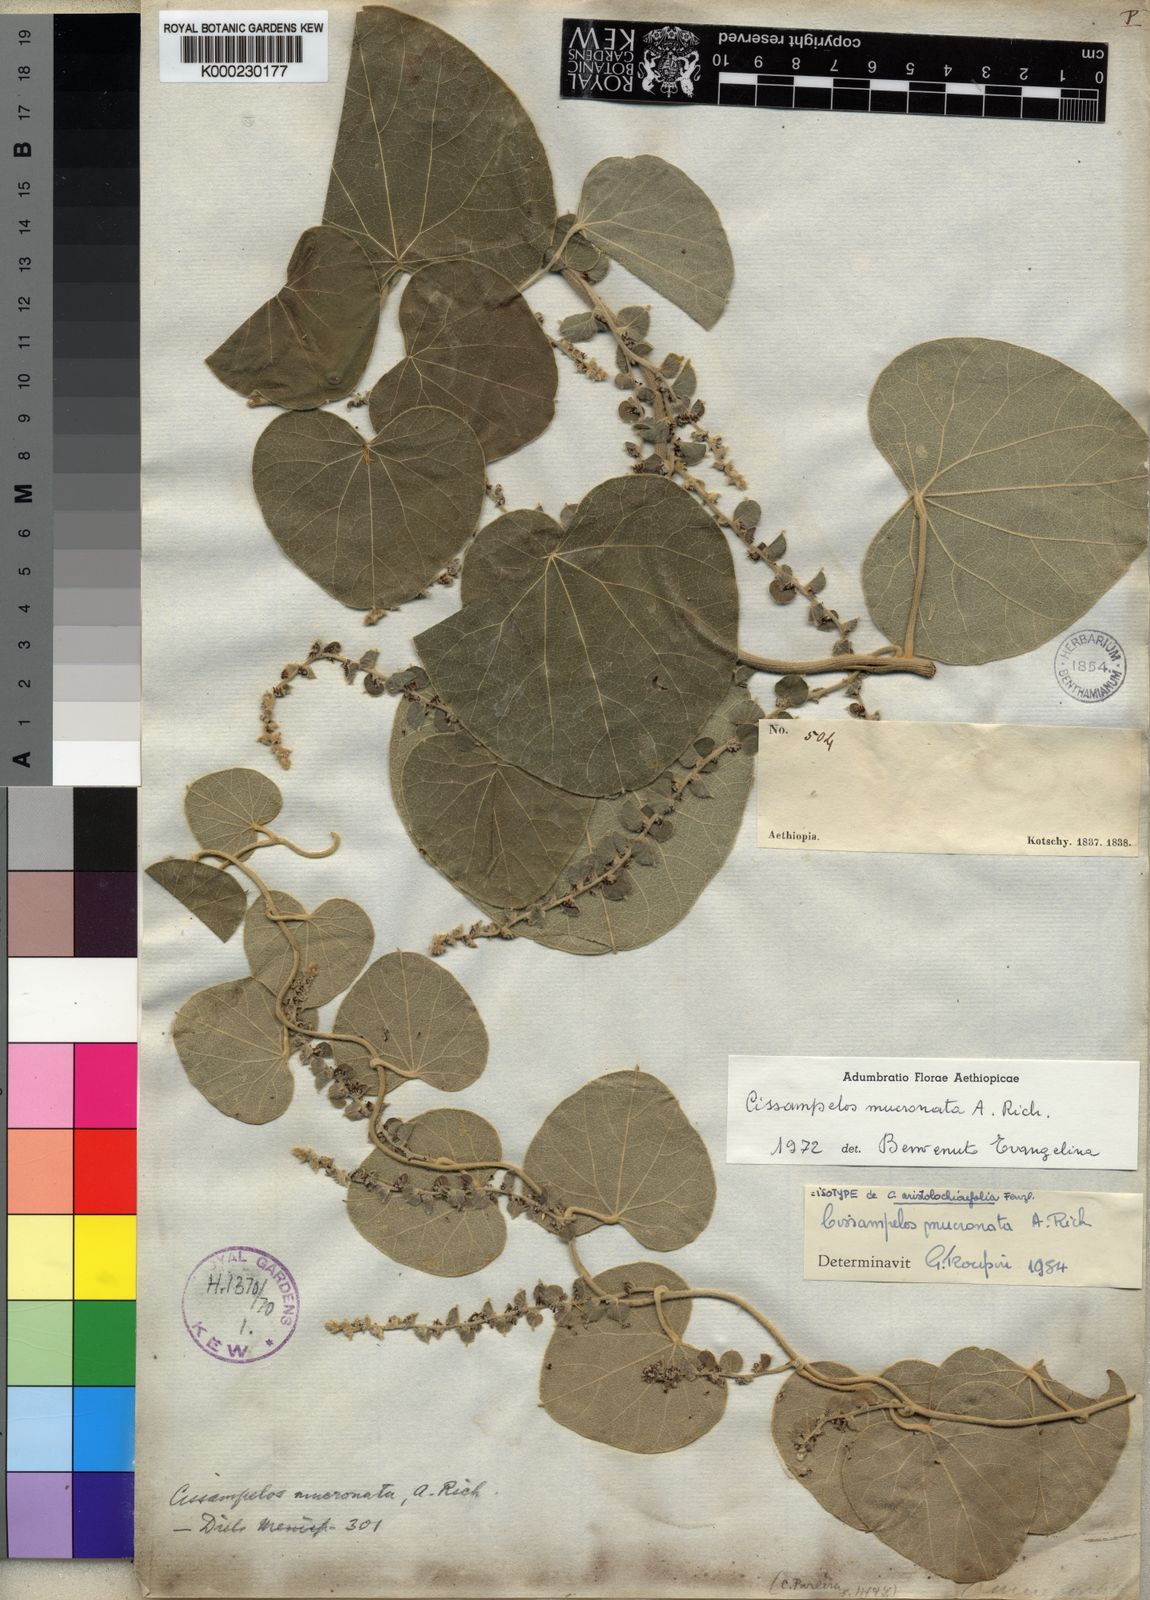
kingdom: Plantae
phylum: Tracheophyta
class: Magnoliopsida
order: Ranunculales
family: Menispermaceae
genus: Cissampelos
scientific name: Cissampelos mucronata
